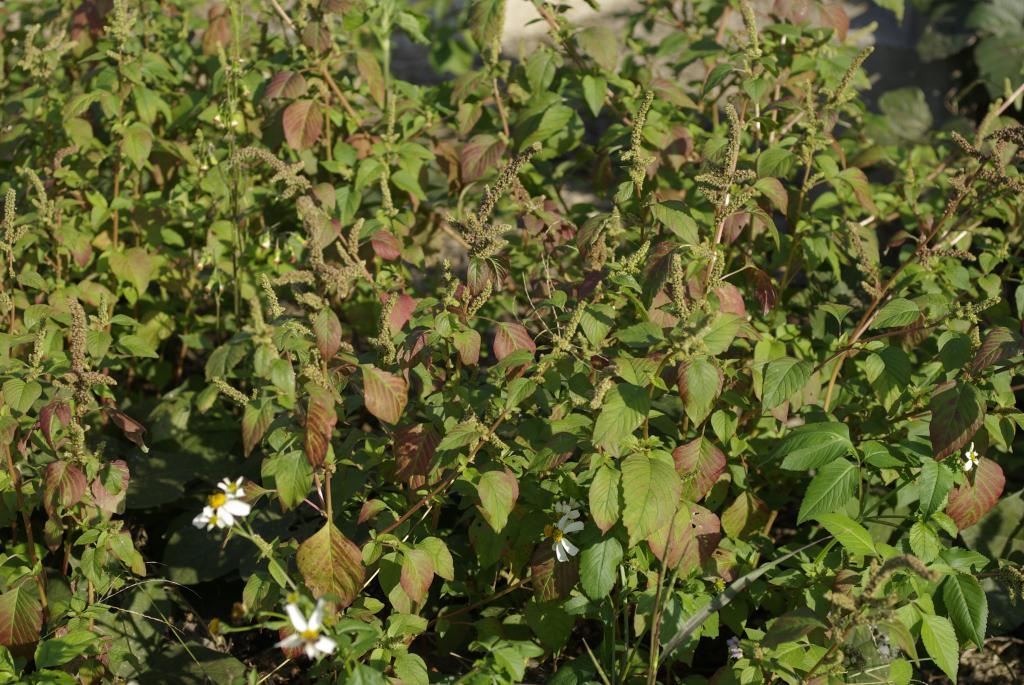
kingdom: Plantae
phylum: Tracheophyta
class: Magnoliopsida
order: Caryophyllales
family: Amaranthaceae
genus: Amaranthus
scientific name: Amaranthus viridis
